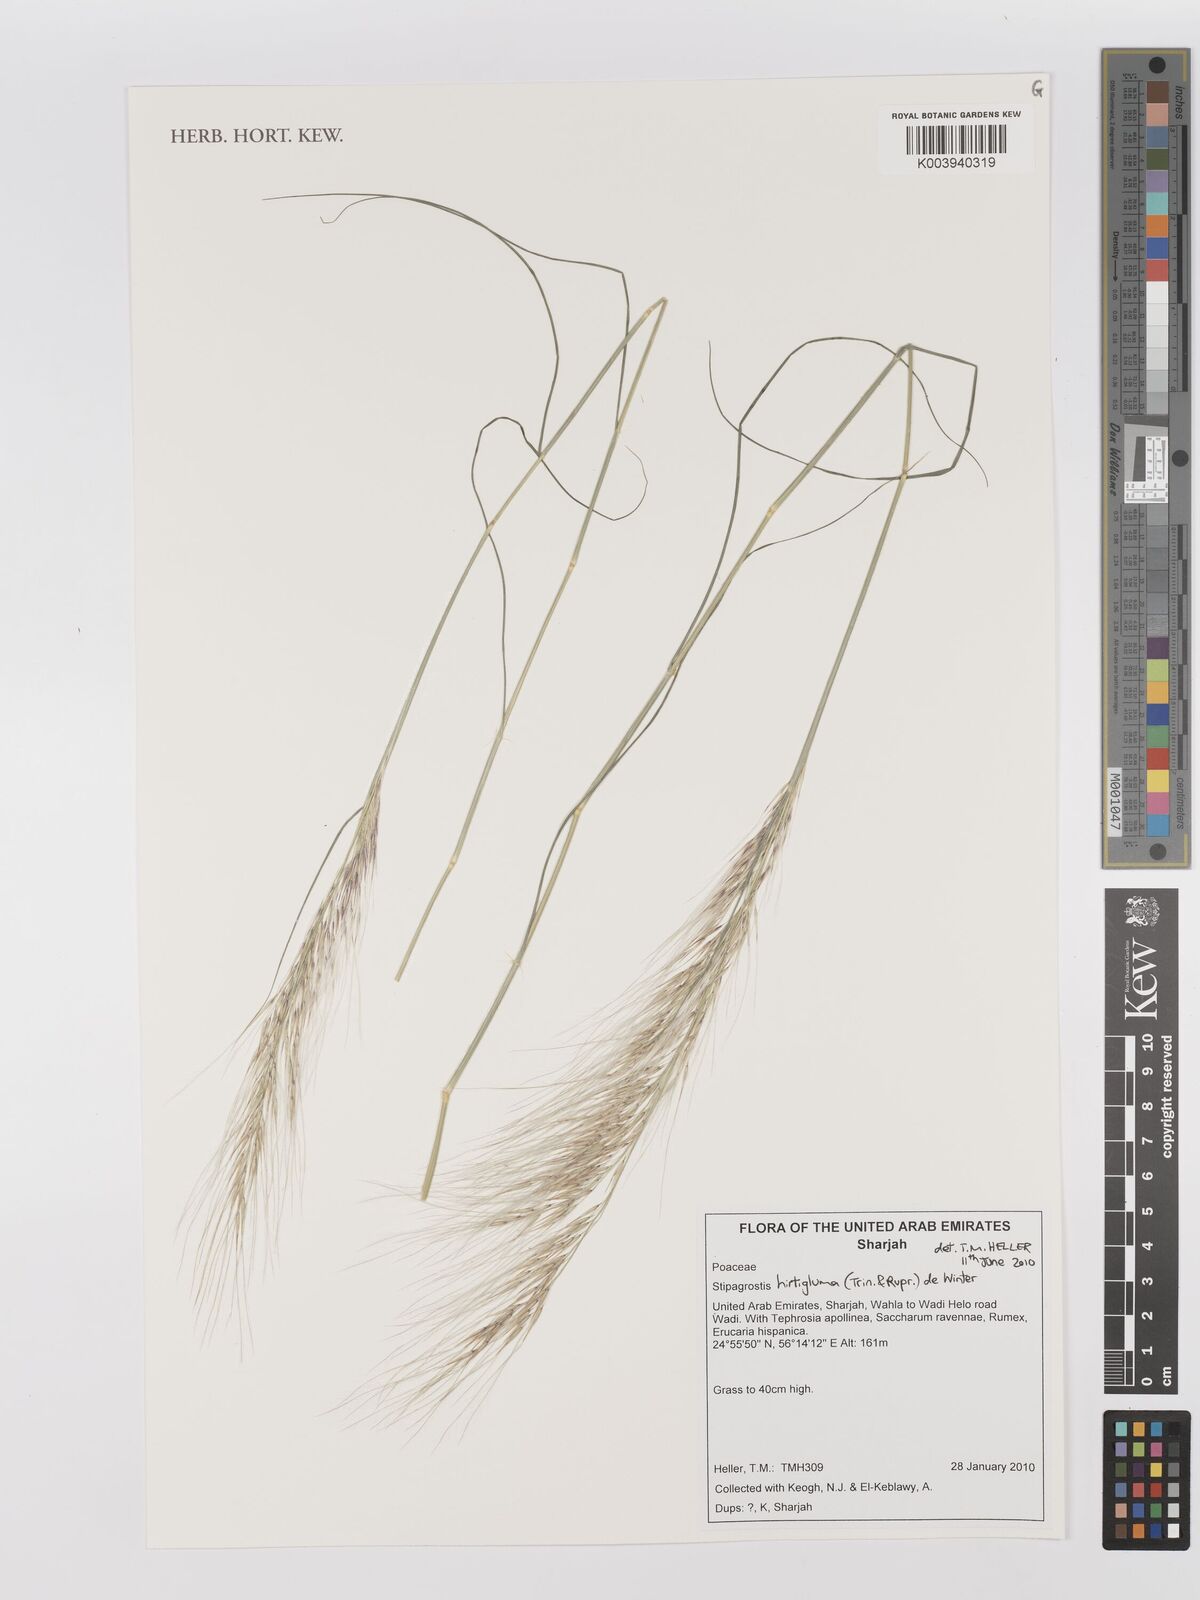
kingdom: Plantae
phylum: Tracheophyta
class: Liliopsida
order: Poales
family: Poaceae
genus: Stipagrostis
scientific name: Stipagrostis hirtigluma
